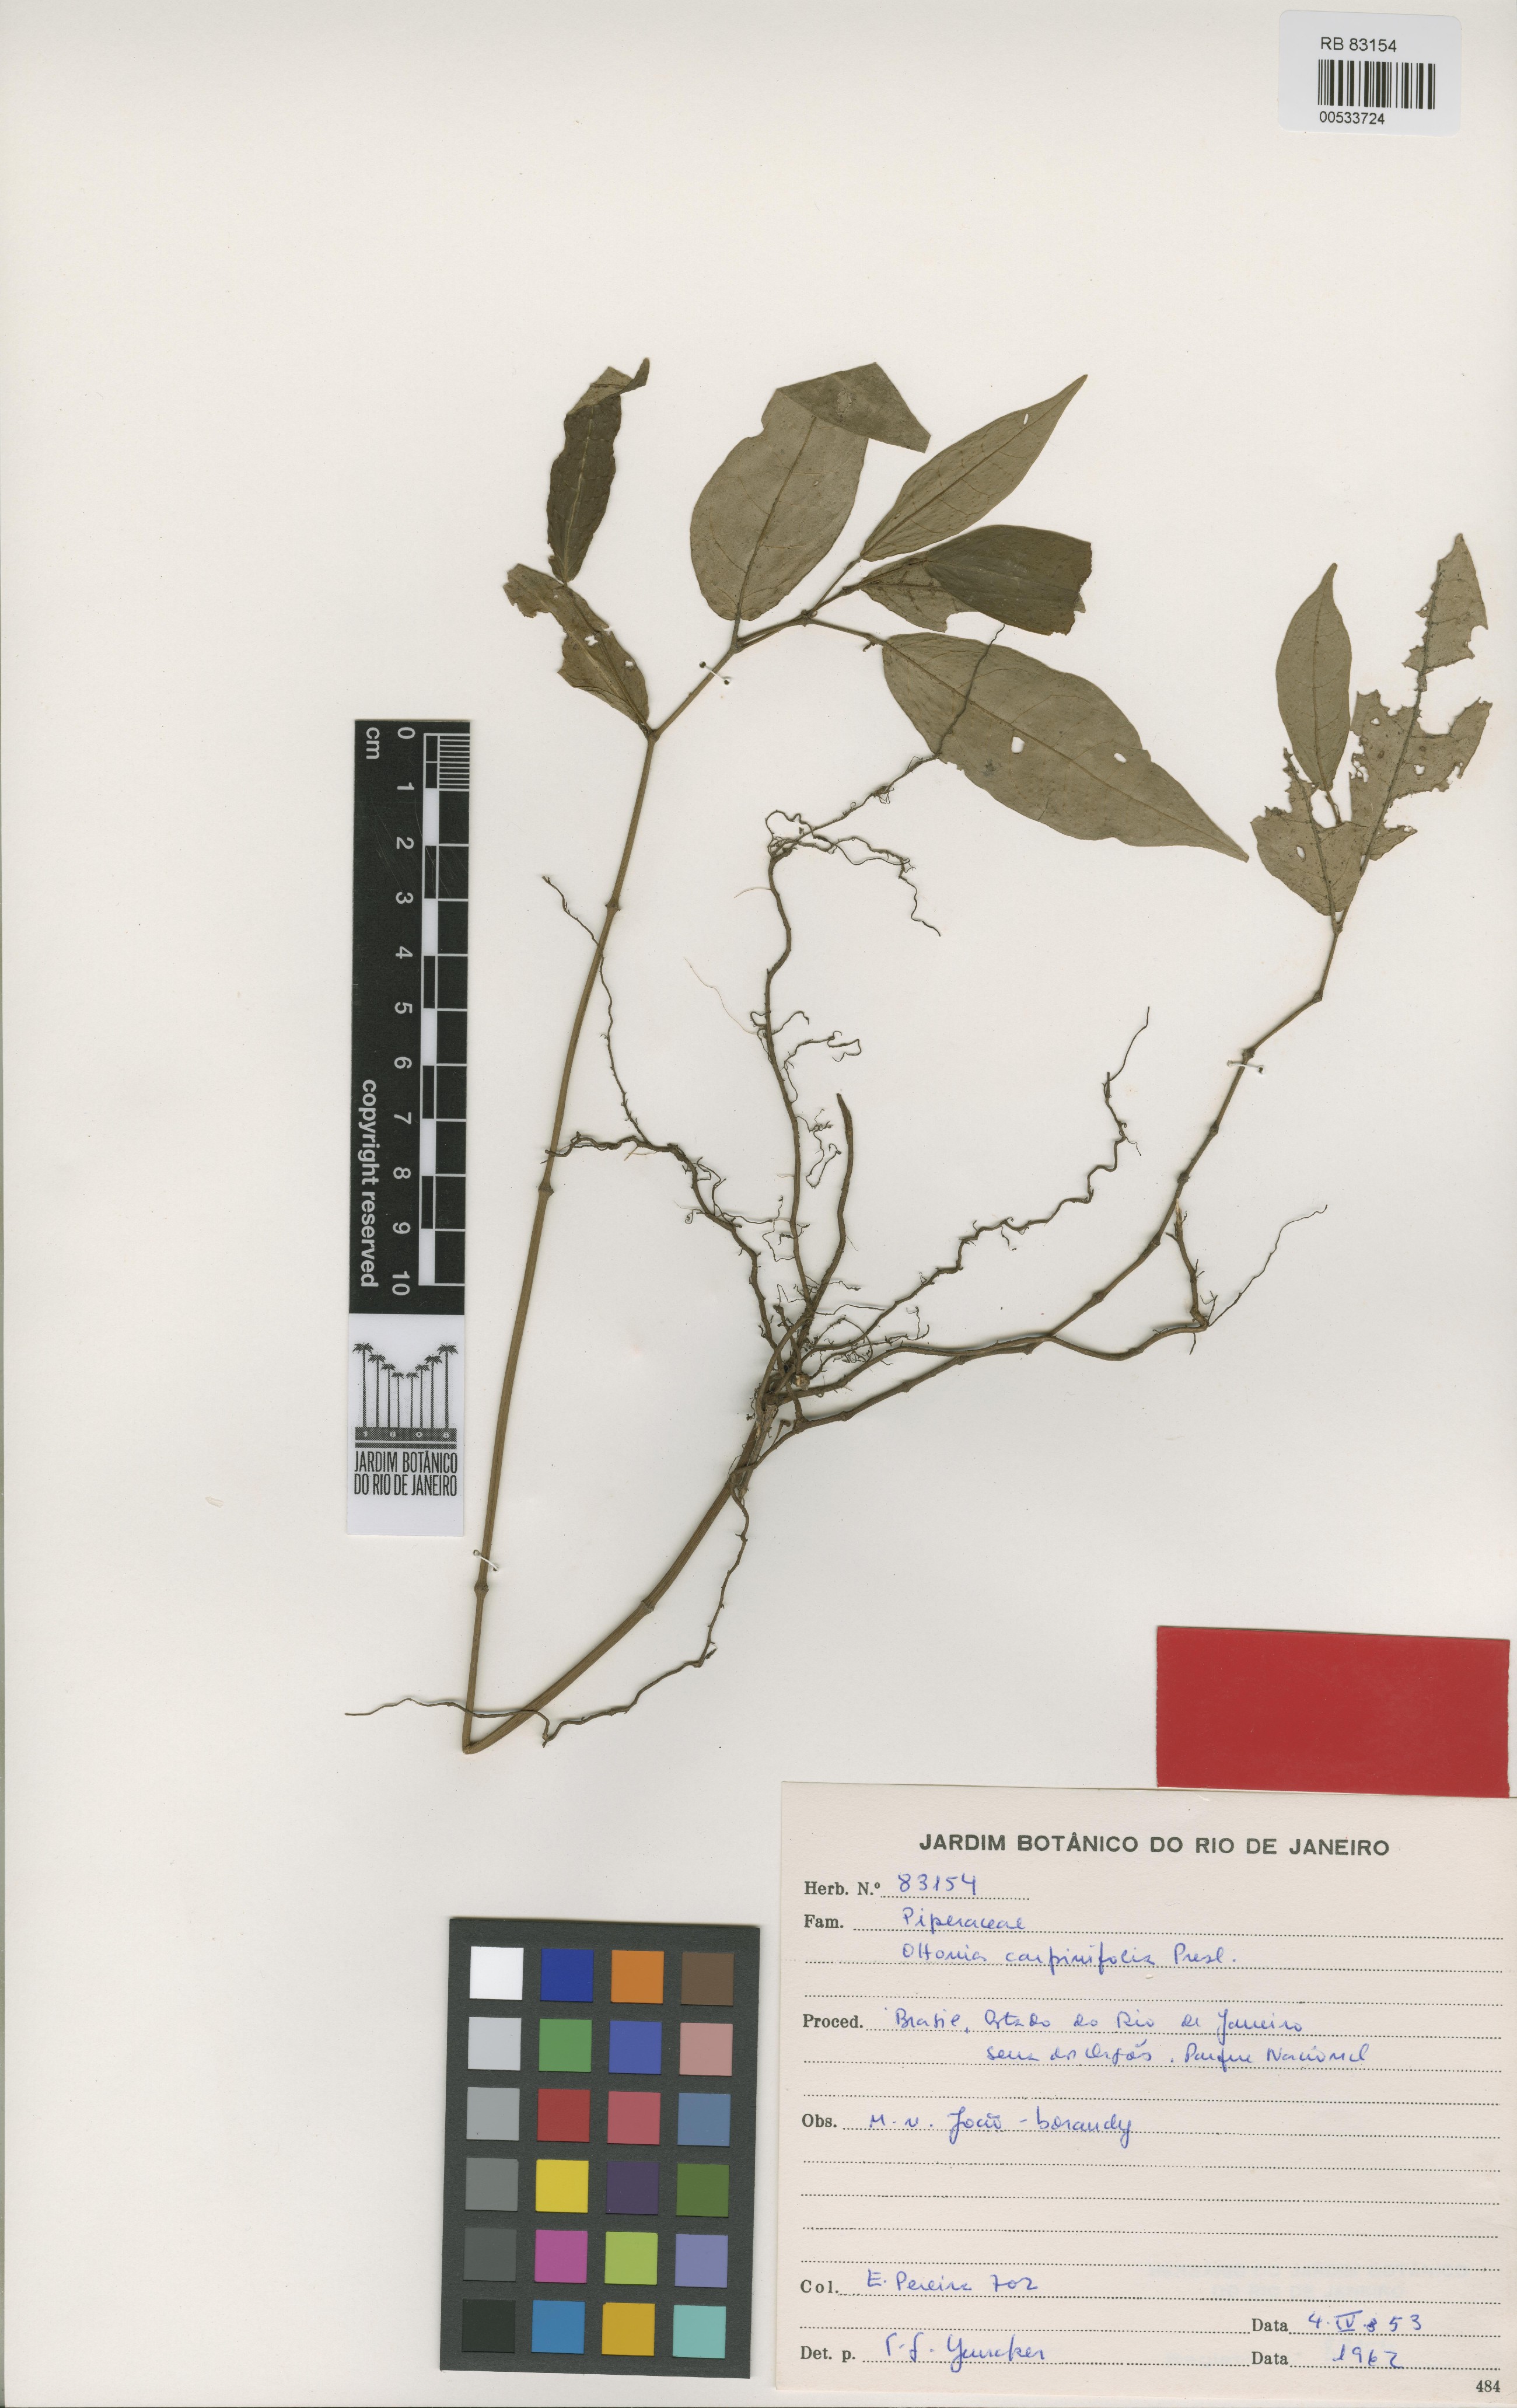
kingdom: Plantae
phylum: Tracheophyta
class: Magnoliopsida
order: Piperales
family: Piperaceae
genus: Piper
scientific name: Piper anisum
